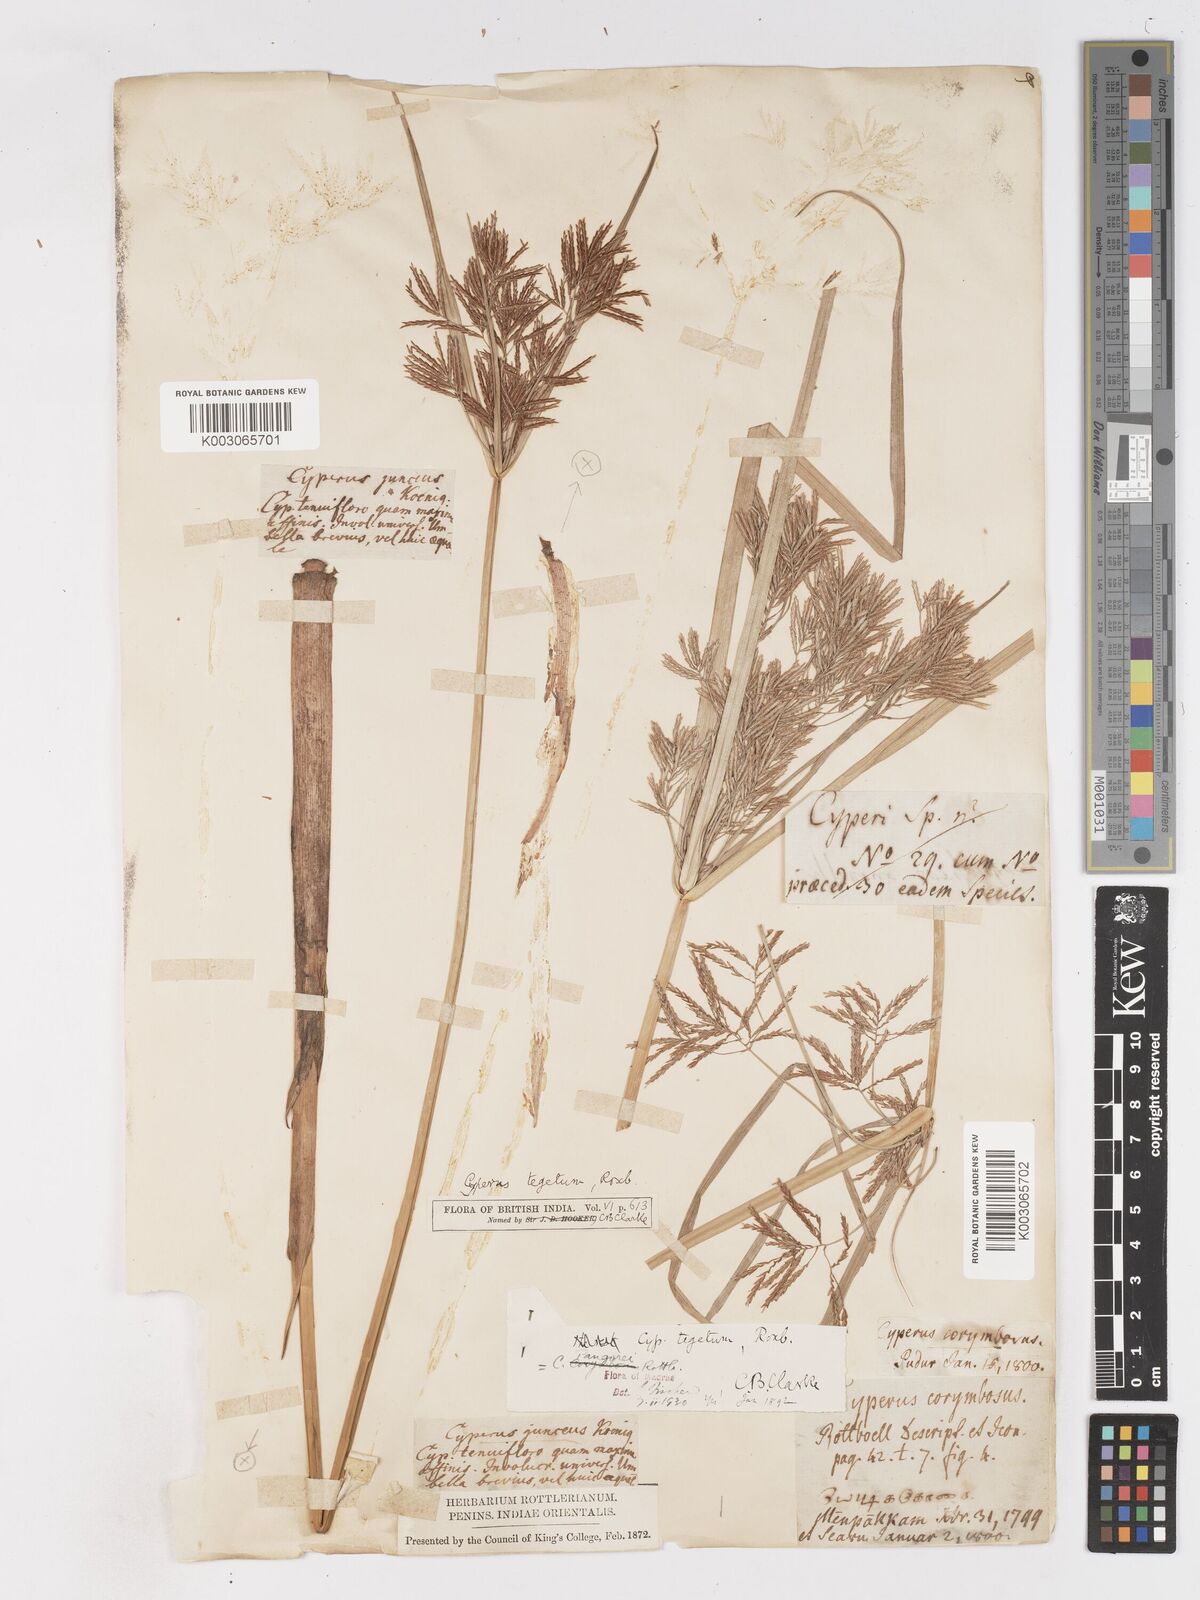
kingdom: Plantae
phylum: Tracheophyta
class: Liliopsida
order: Poales
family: Cyperaceae
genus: Cyperus
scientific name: Cyperus pangorei
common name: Mat sedge
